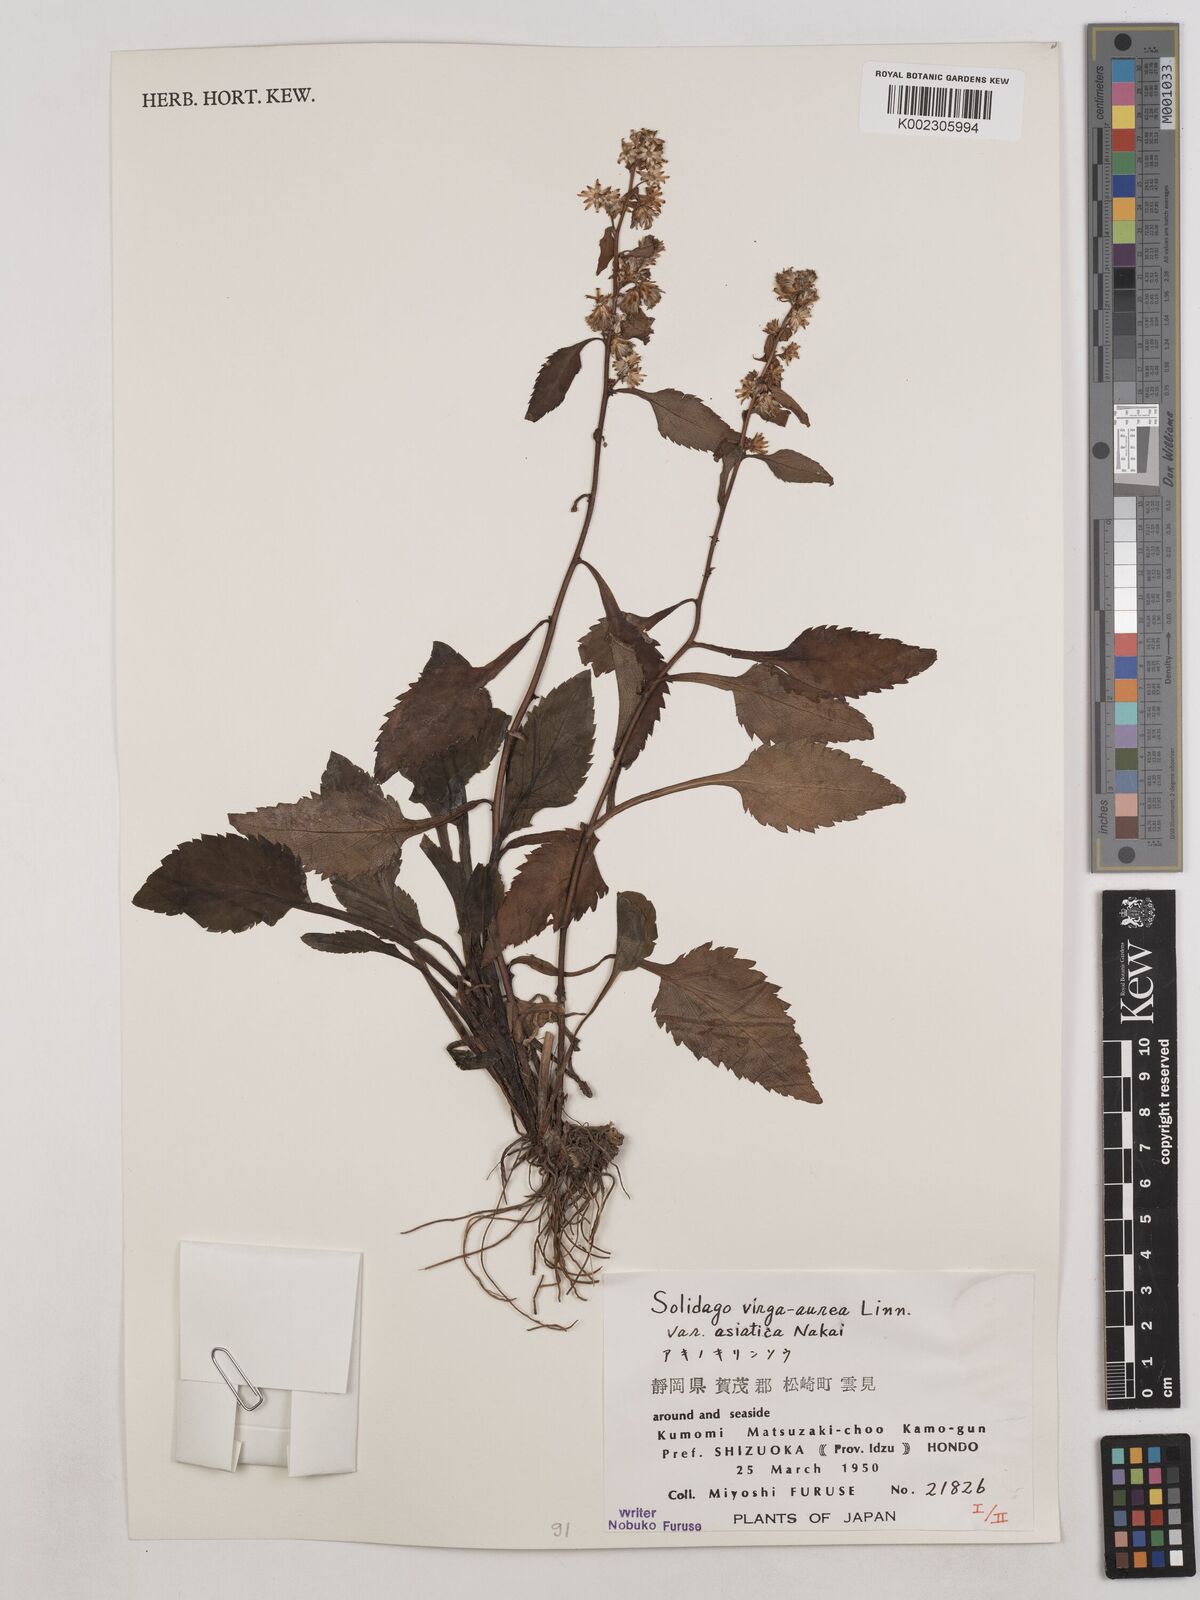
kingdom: Plantae
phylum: Tracheophyta
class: Magnoliopsida
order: Asterales
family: Asteraceae
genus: Solidago
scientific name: Solidago virgaurea
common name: Goldenrod
